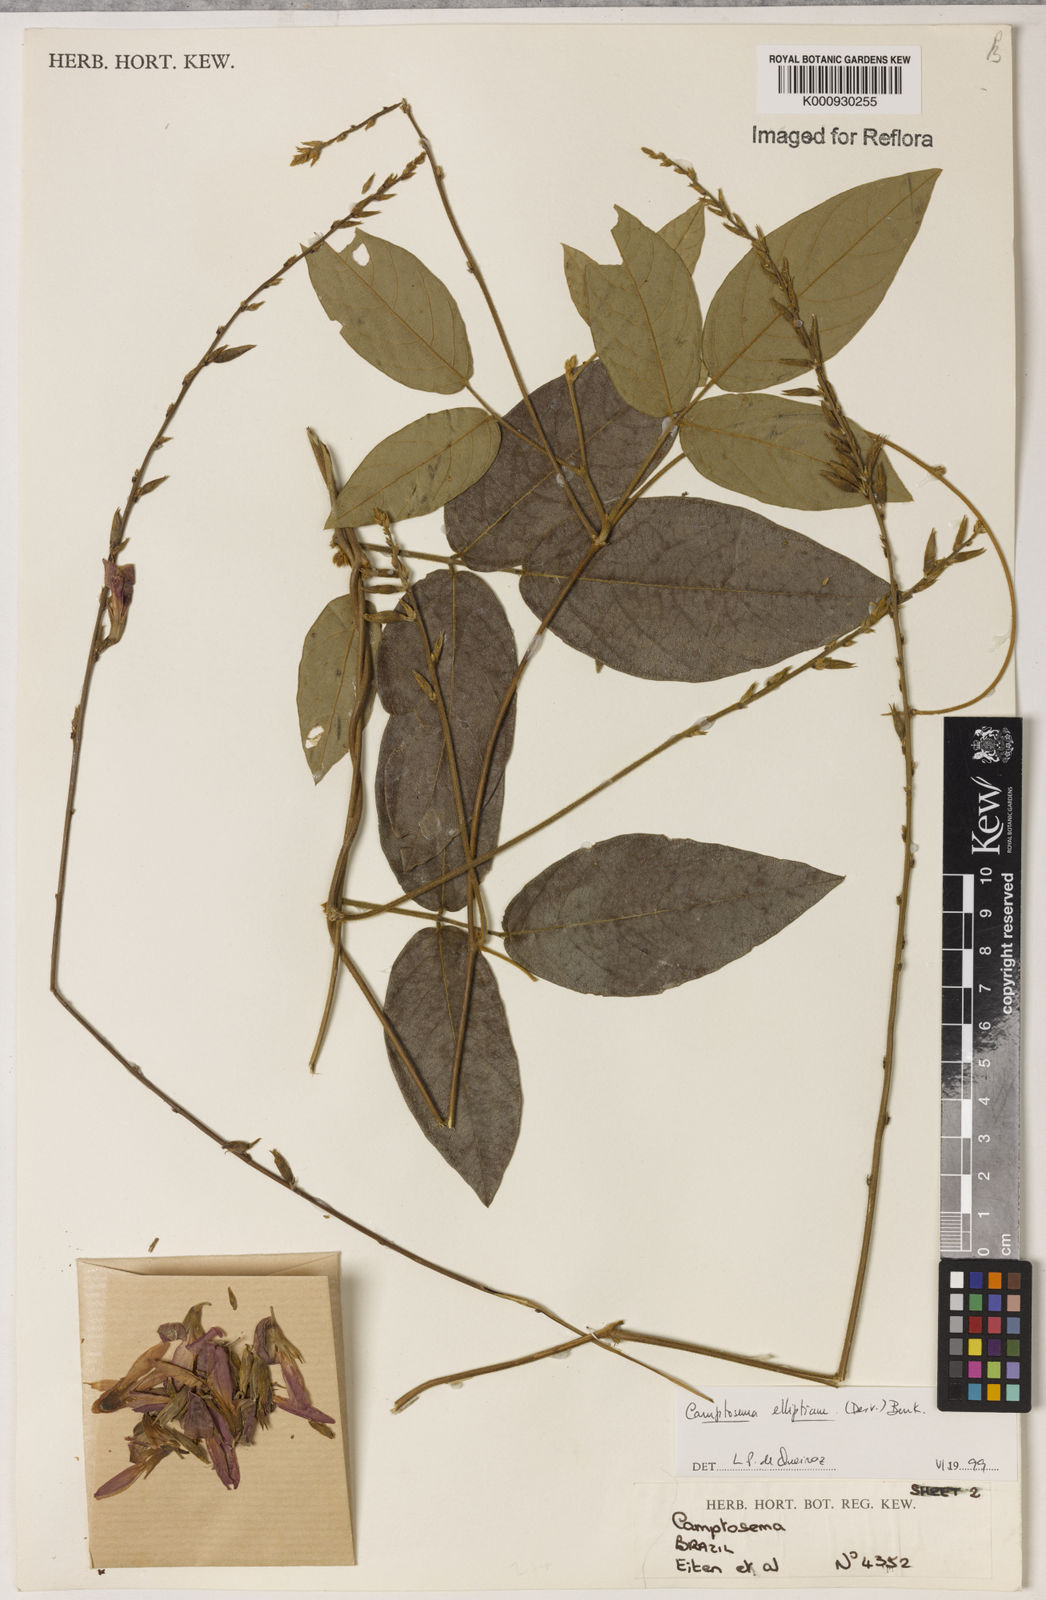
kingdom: Plantae
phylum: Tracheophyta
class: Magnoliopsida
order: Fabales
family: Fabaceae
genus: Camptosema
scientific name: Camptosema
